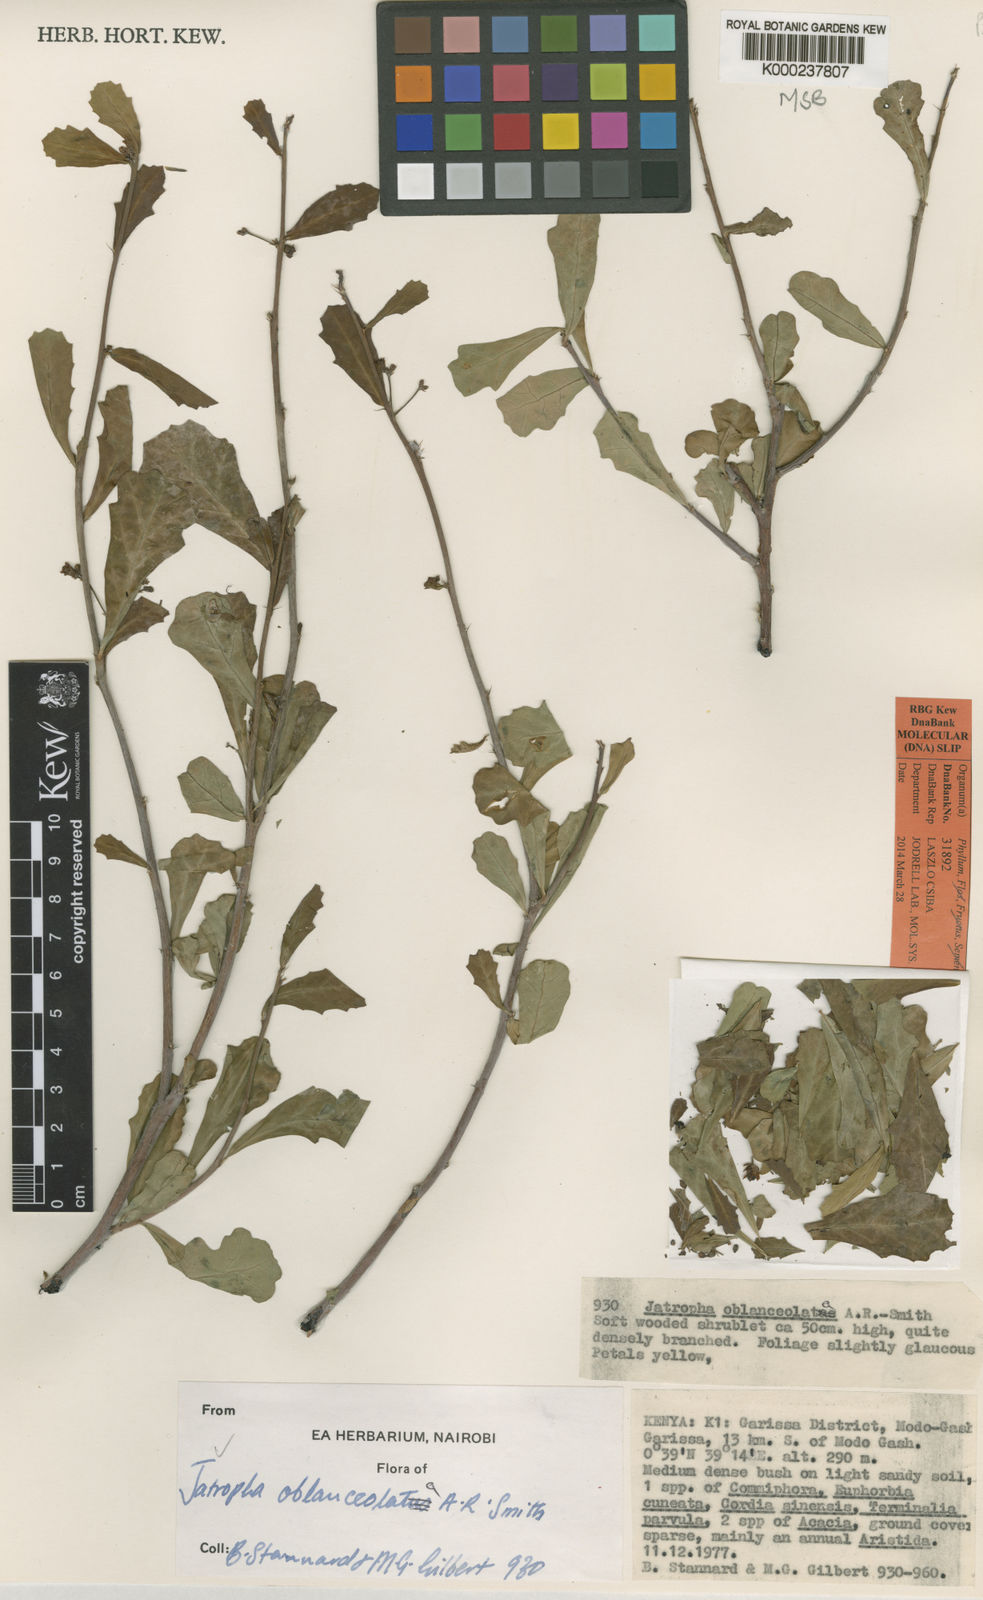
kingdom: Plantae
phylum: Tracheophyta
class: Magnoliopsida
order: Malpighiales
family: Euphorbiaceae
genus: Jatropha
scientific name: Jatropha
